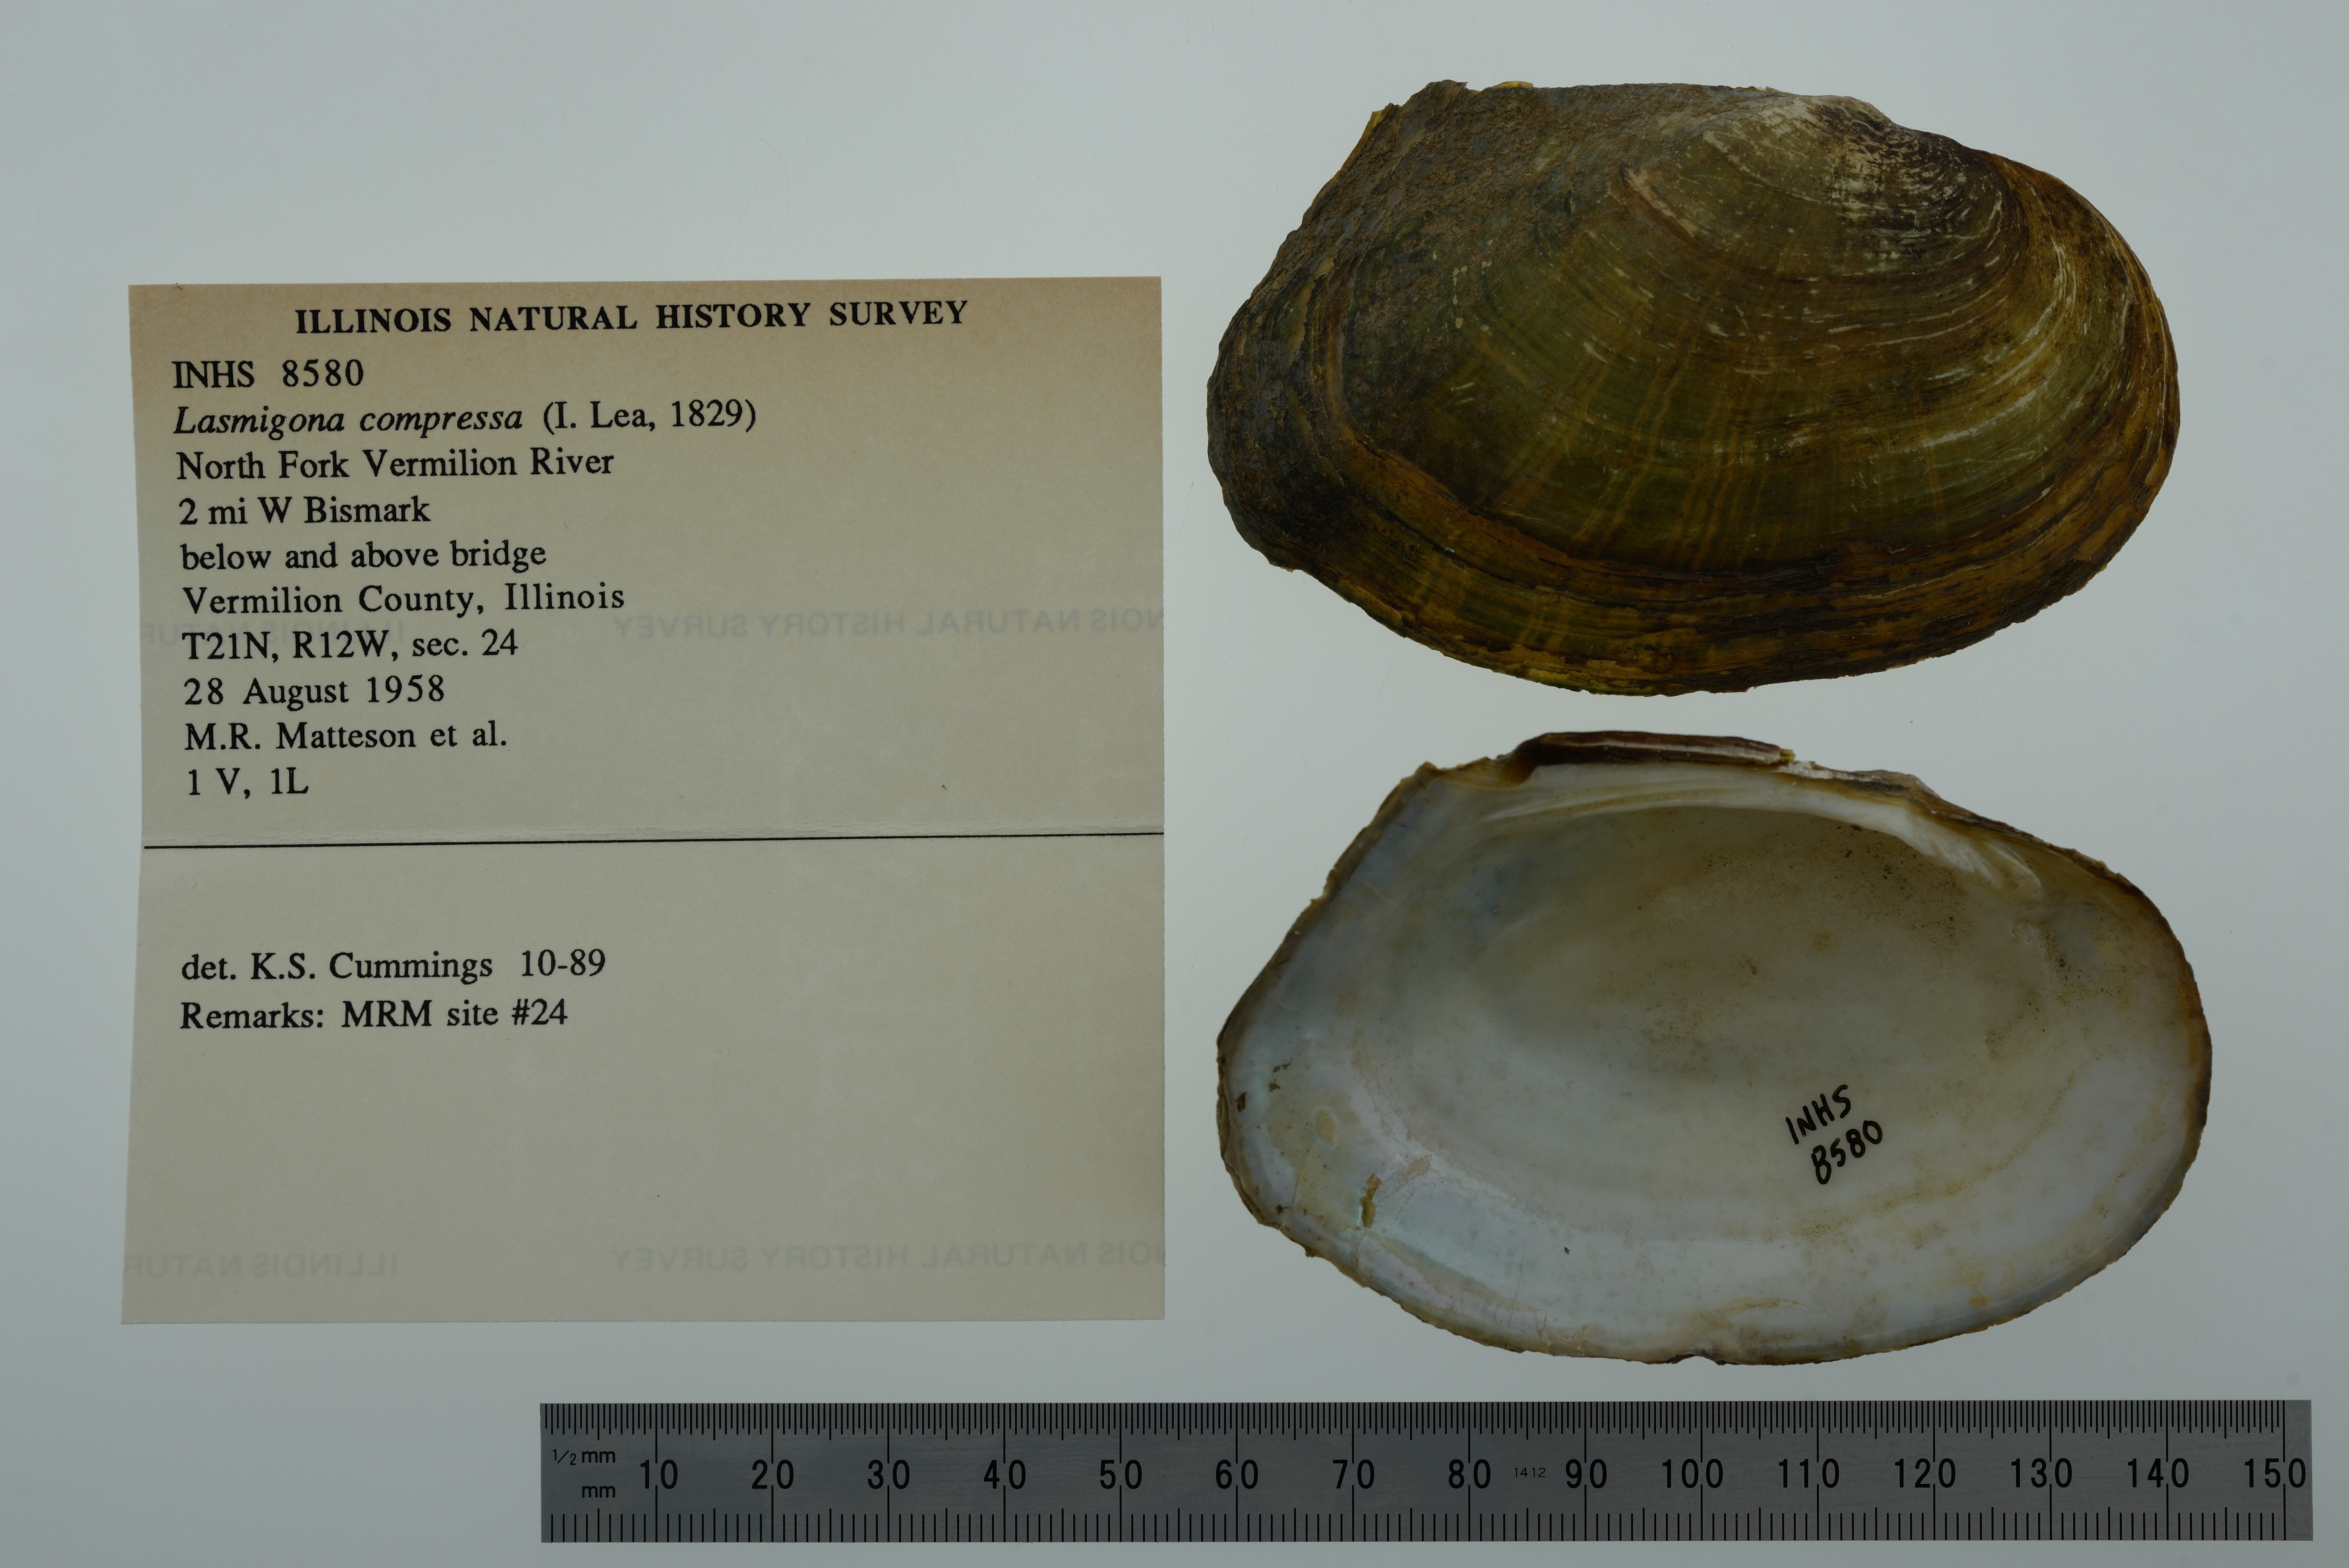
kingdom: Animalia
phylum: Mollusca
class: Bivalvia
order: Unionida
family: Unionidae
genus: Lasmigona
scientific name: Lasmigona compressa
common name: Creek heelsplitter
